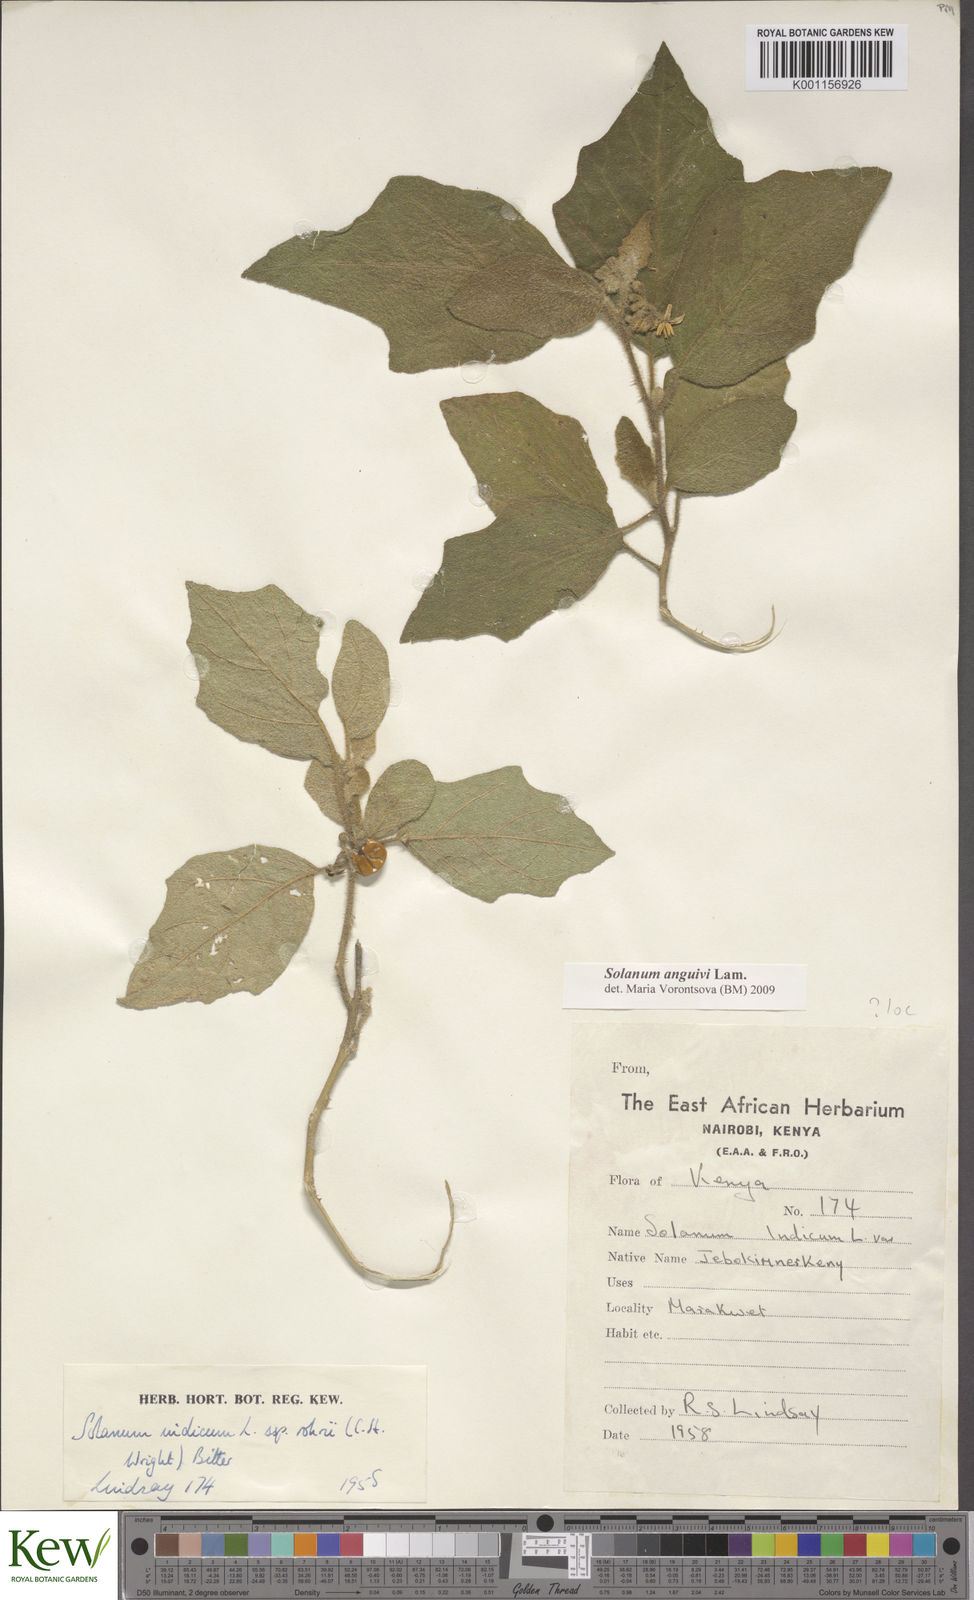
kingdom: Plantae
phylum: Tracheophyta
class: Magnoliopsida
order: Solanales
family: Solanaceae
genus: Solanum
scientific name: Solanum anguivi
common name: Forest bitterberry
